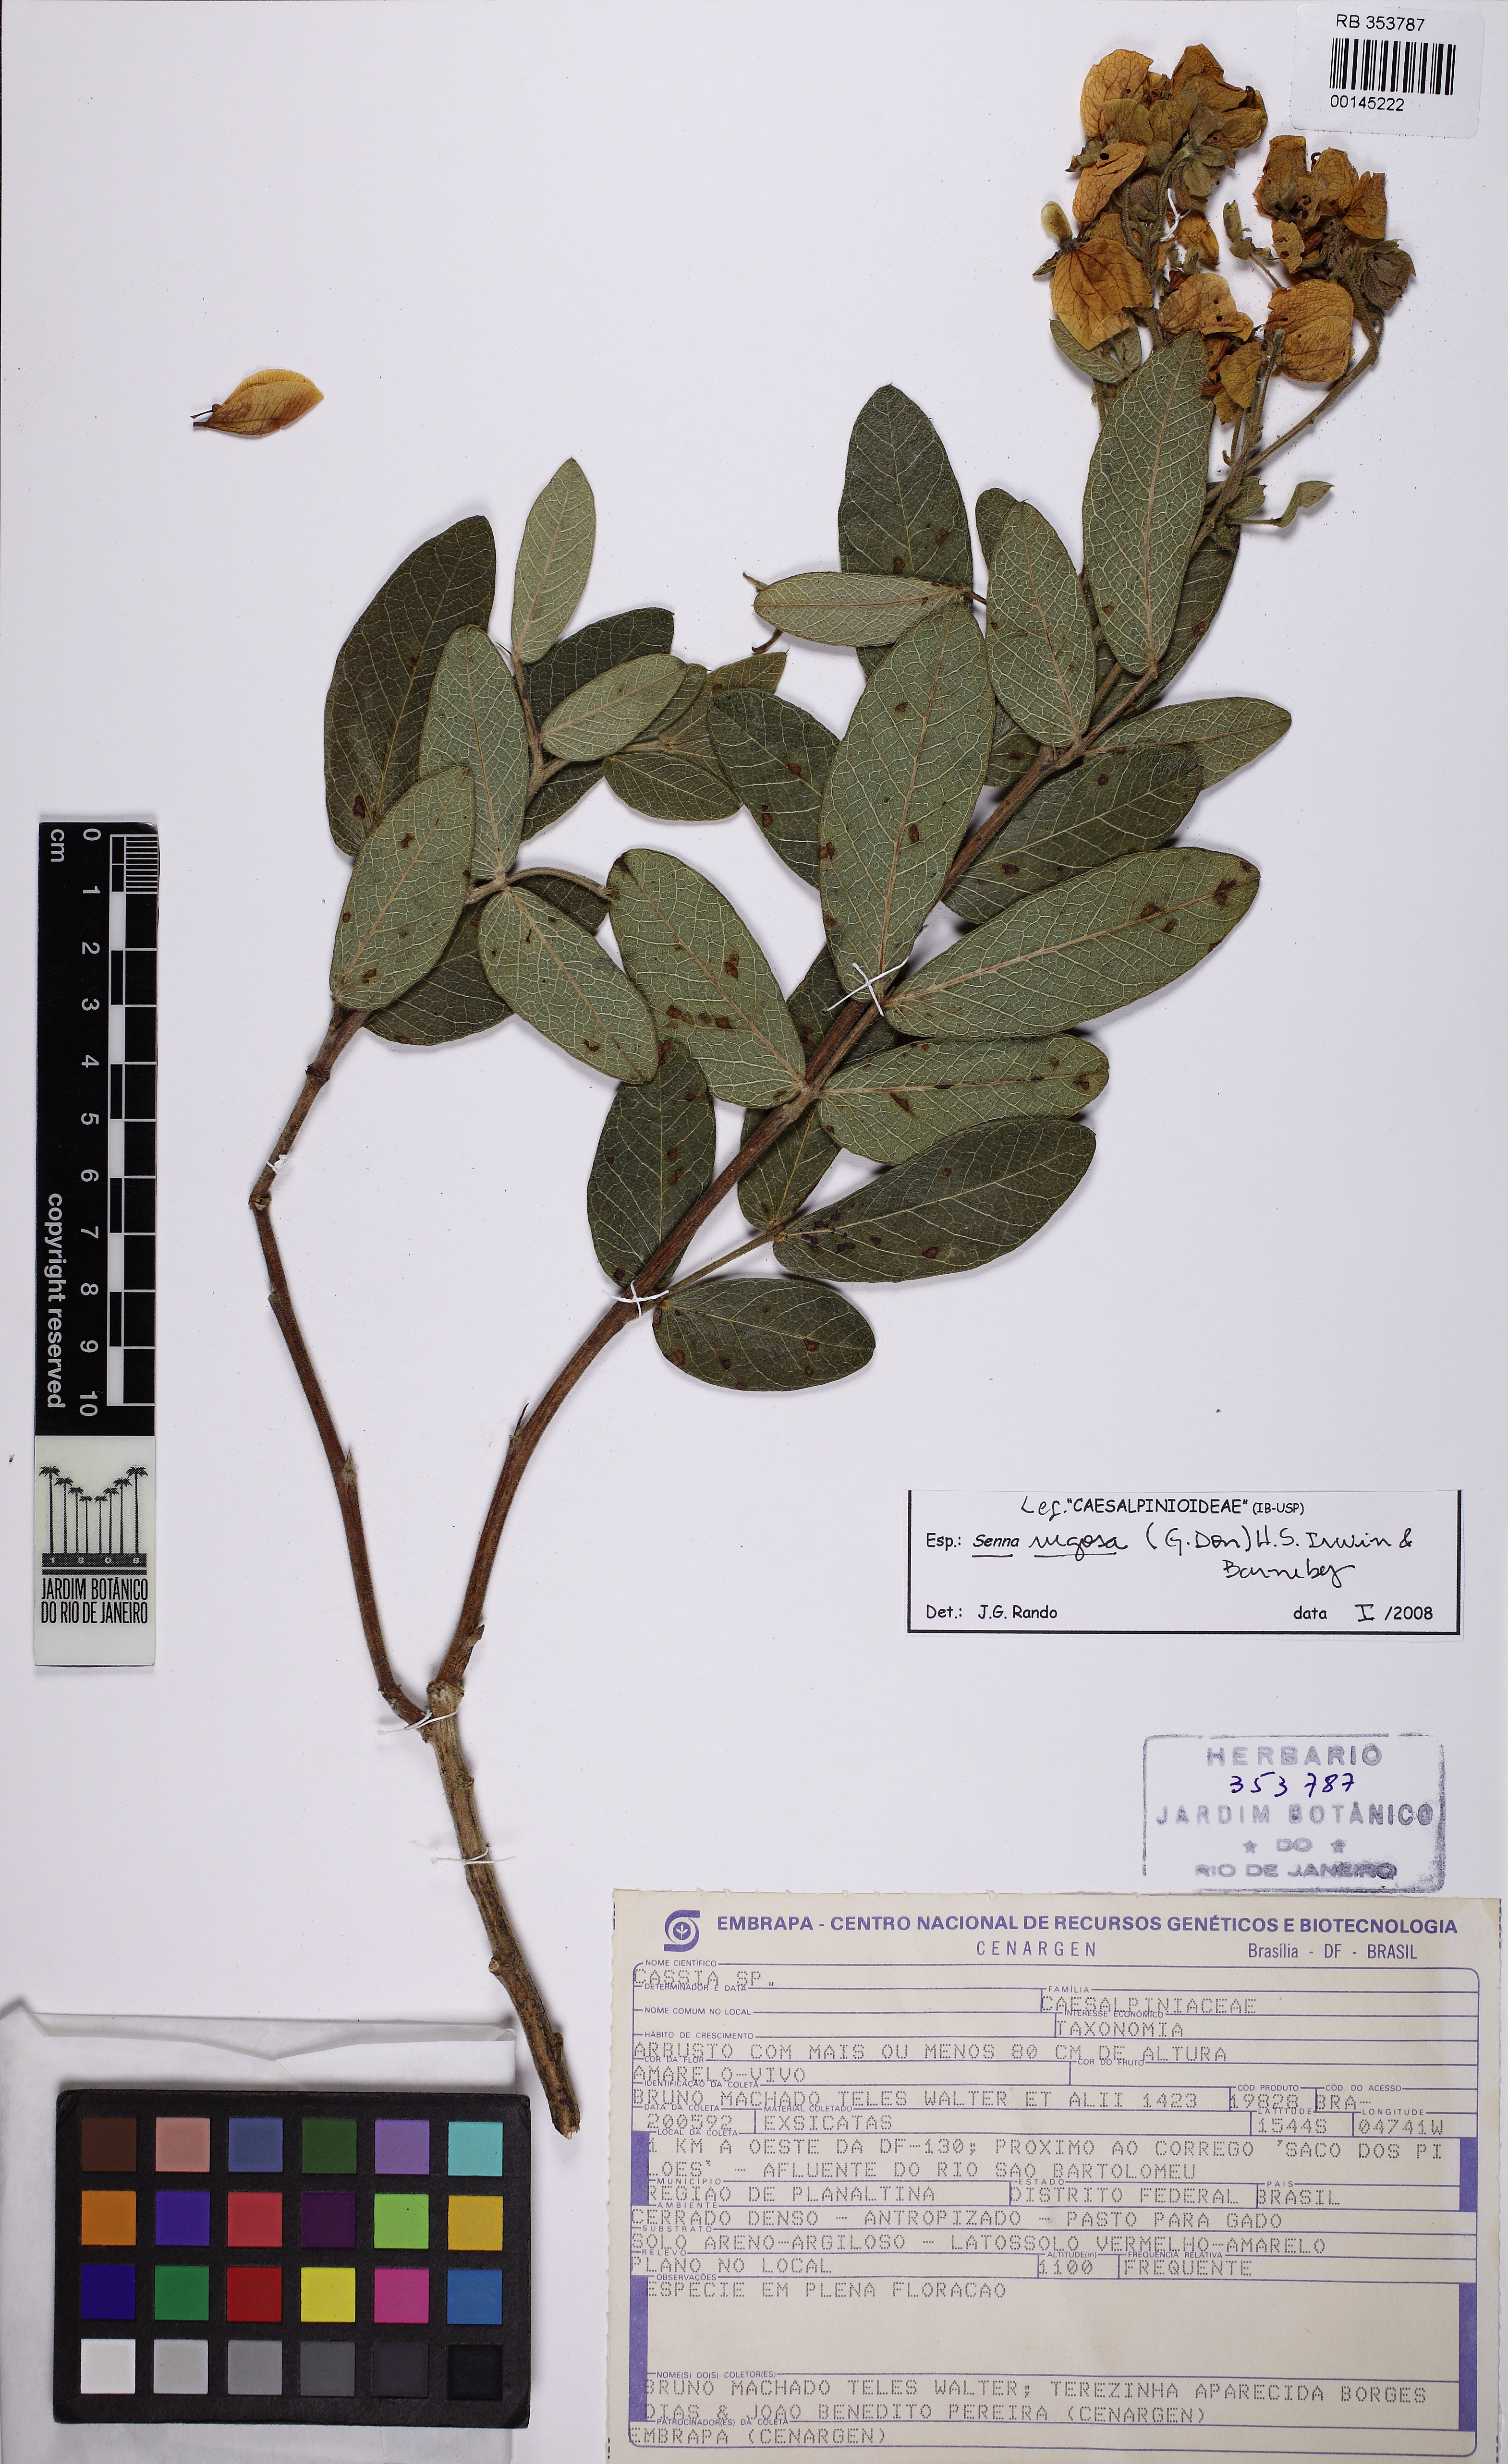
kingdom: Plantae
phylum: Tracheophyta
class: Magnoliopsida
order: Fabales
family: Fabaceae
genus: Senna
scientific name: Senna rugosa
